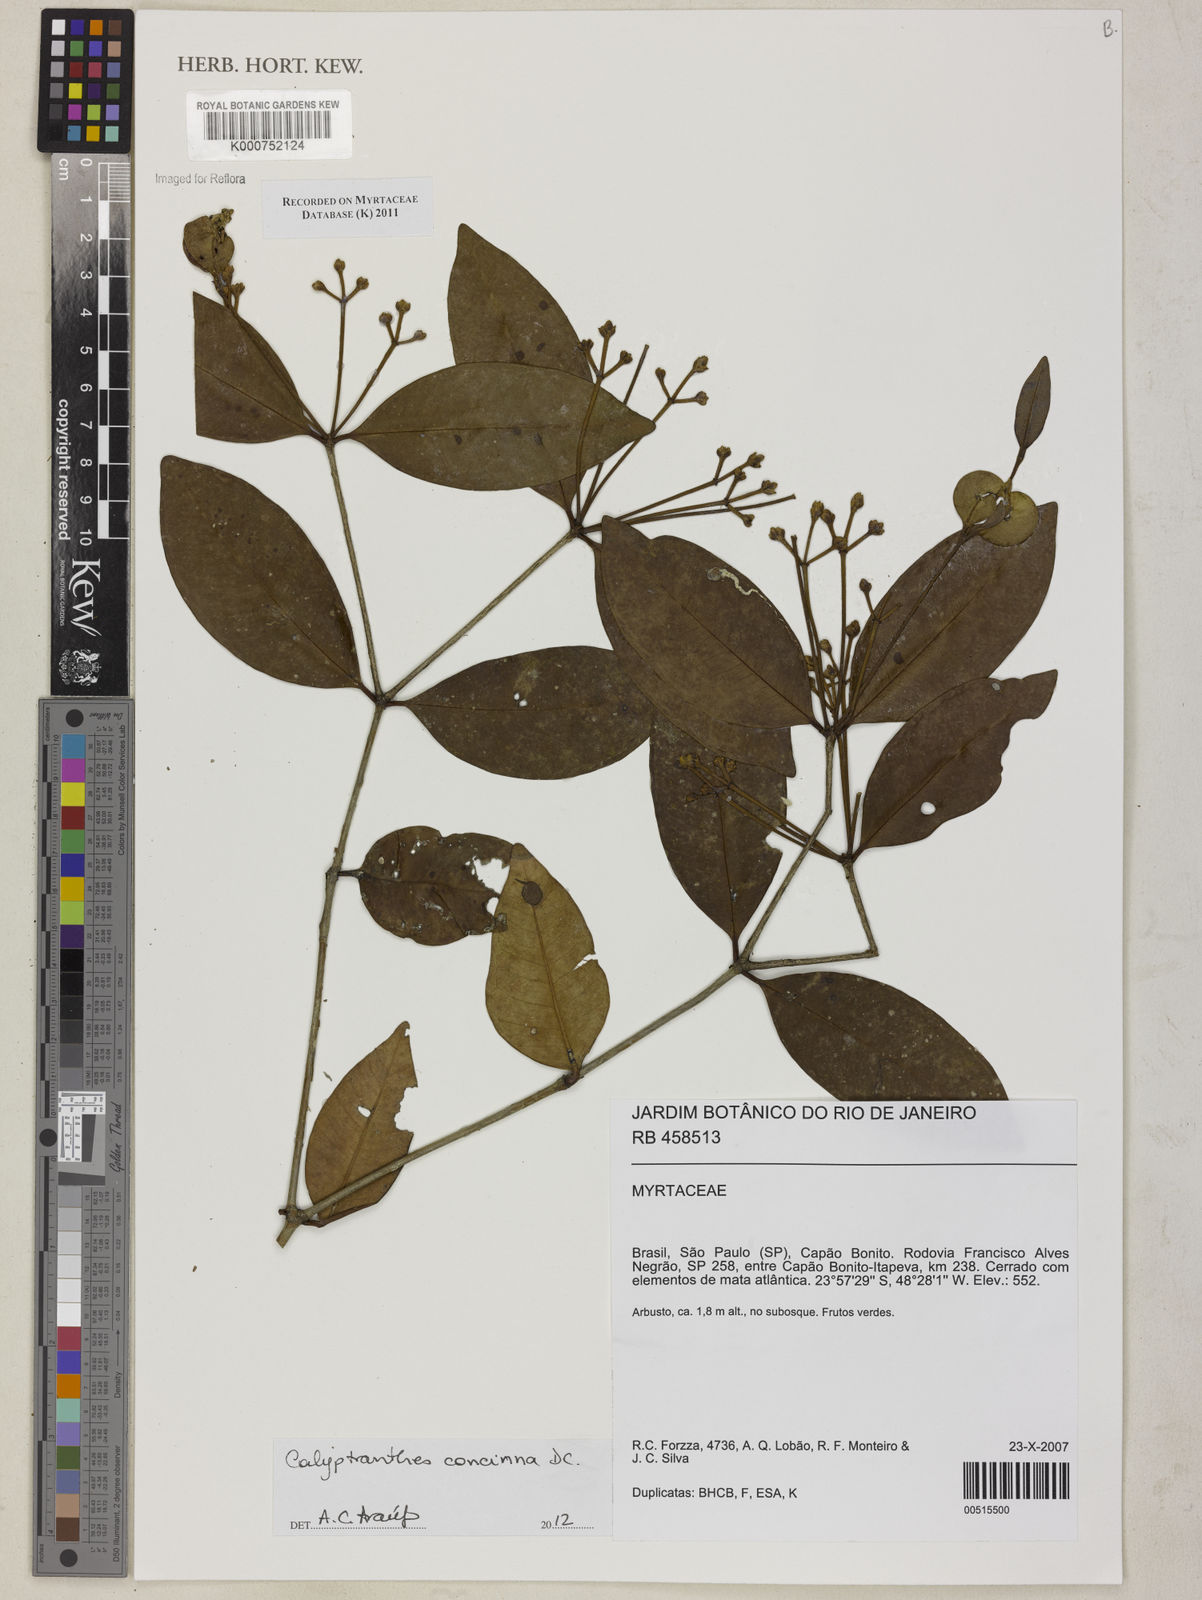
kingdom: Plantae
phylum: Tracheophyta
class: Magnoliopsida
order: Myrtales
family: Myrtaceae
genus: Myrcia
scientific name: Myrcia
